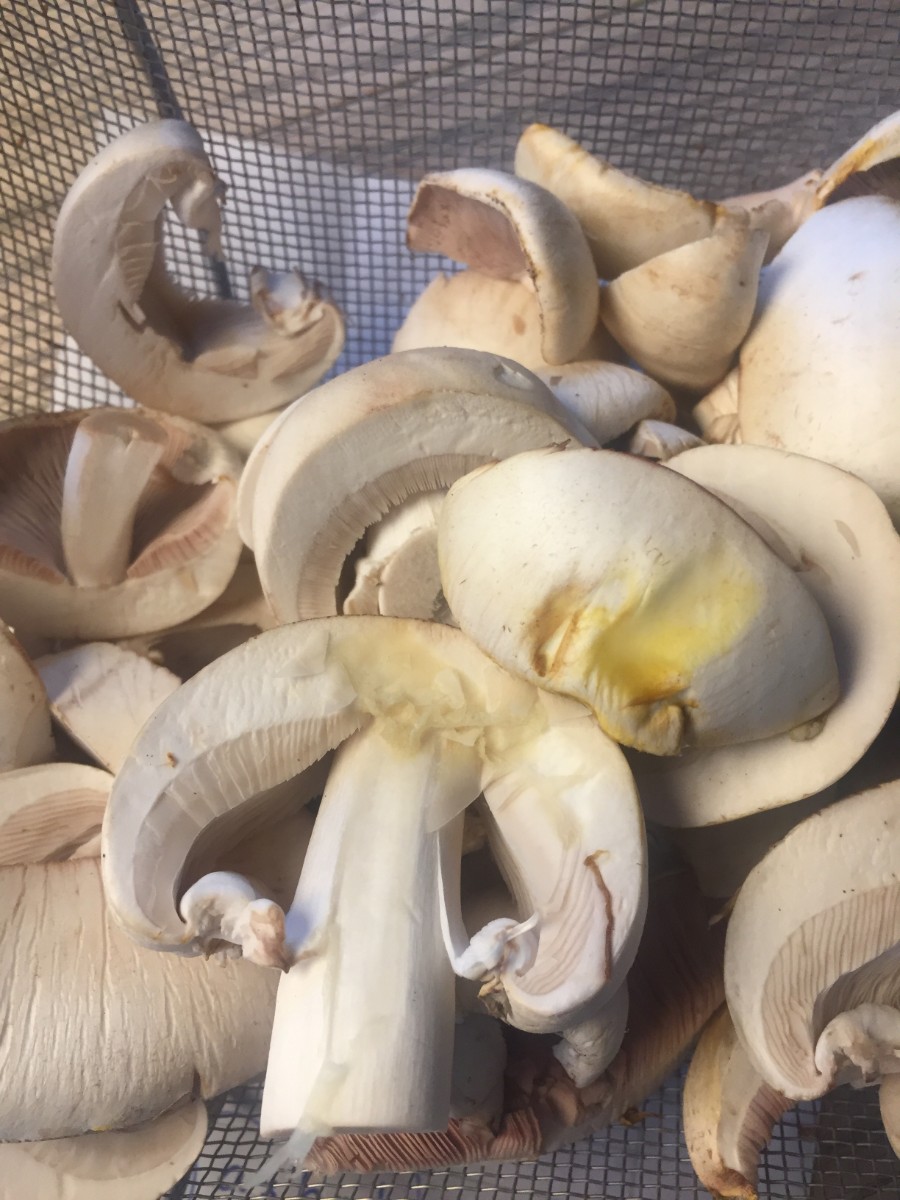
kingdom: Fungi
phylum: Basidiomycota
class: Agaricomycetes
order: Agaricales
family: Agaricaceae
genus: Agaricus
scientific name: Agaricus xanthodermus
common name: karbol-champignon
